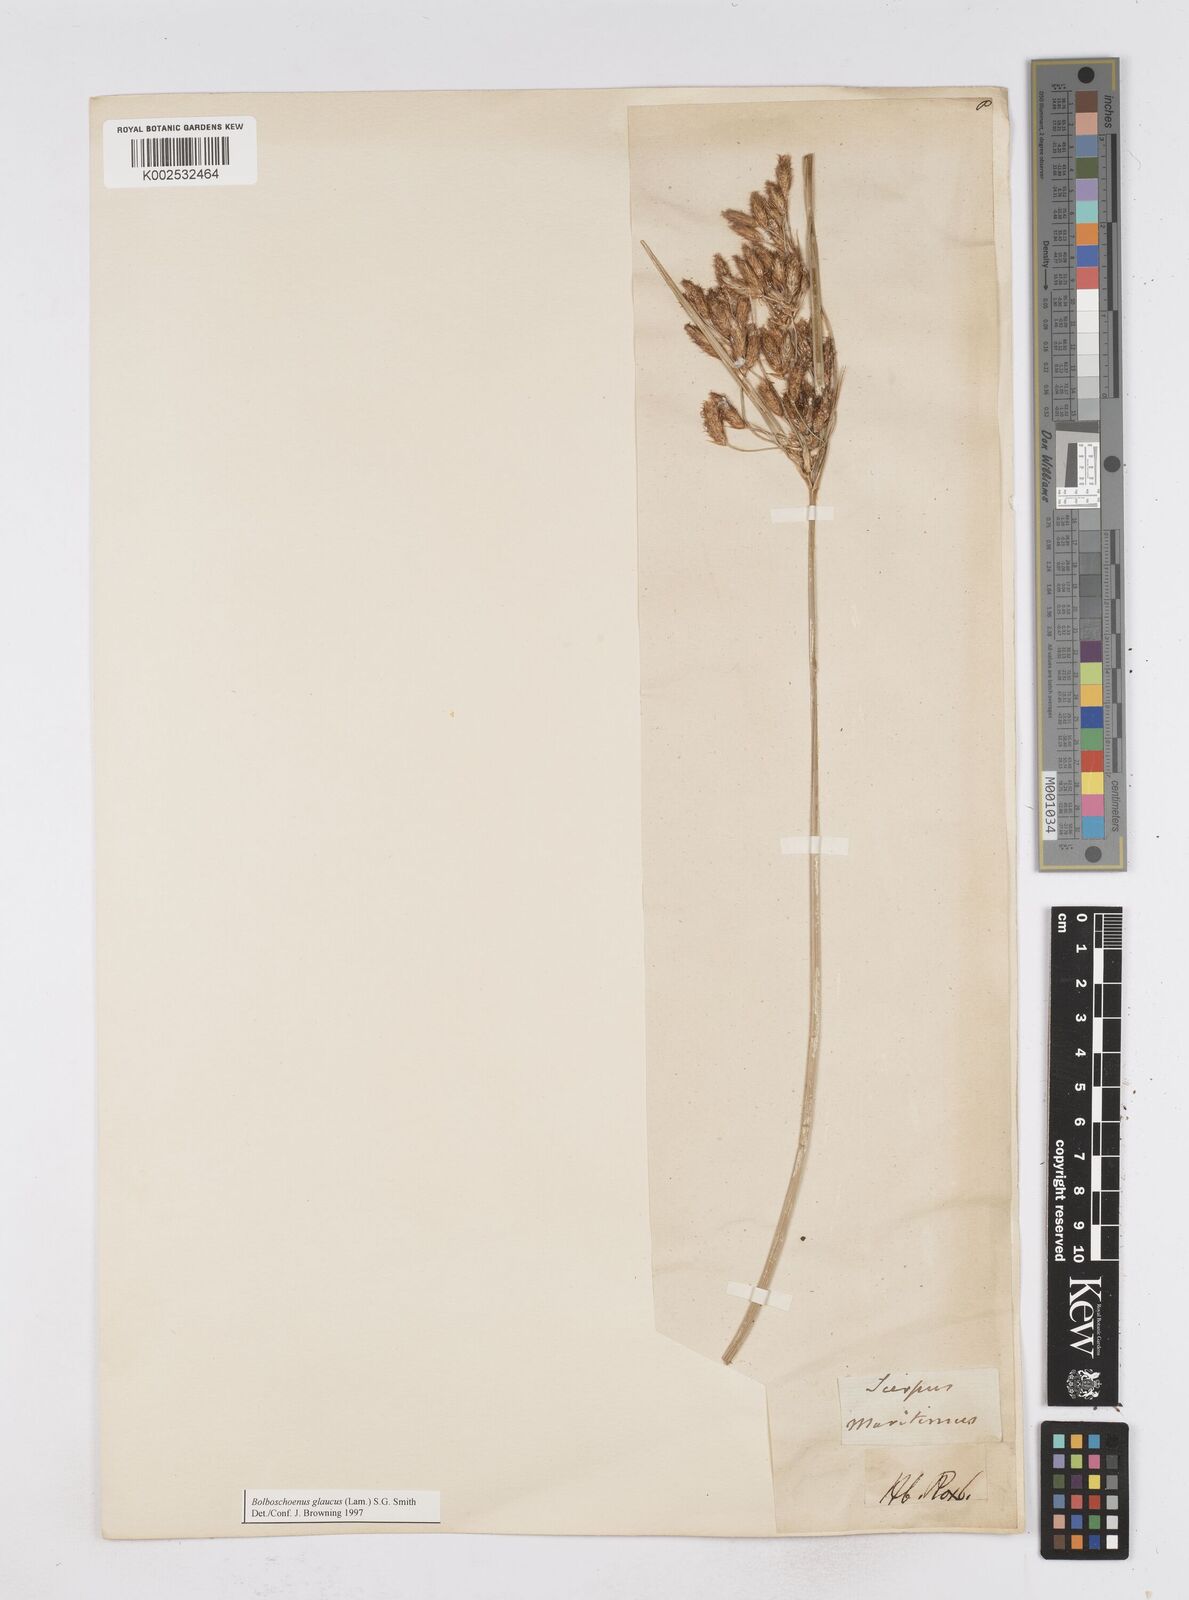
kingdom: Plantae
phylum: Tracheophyta
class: Liliopsida
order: Poales
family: Cyperaceae
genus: Bolboschoenus
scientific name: Bolboschoenus maritimus
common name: Sea club-rush
